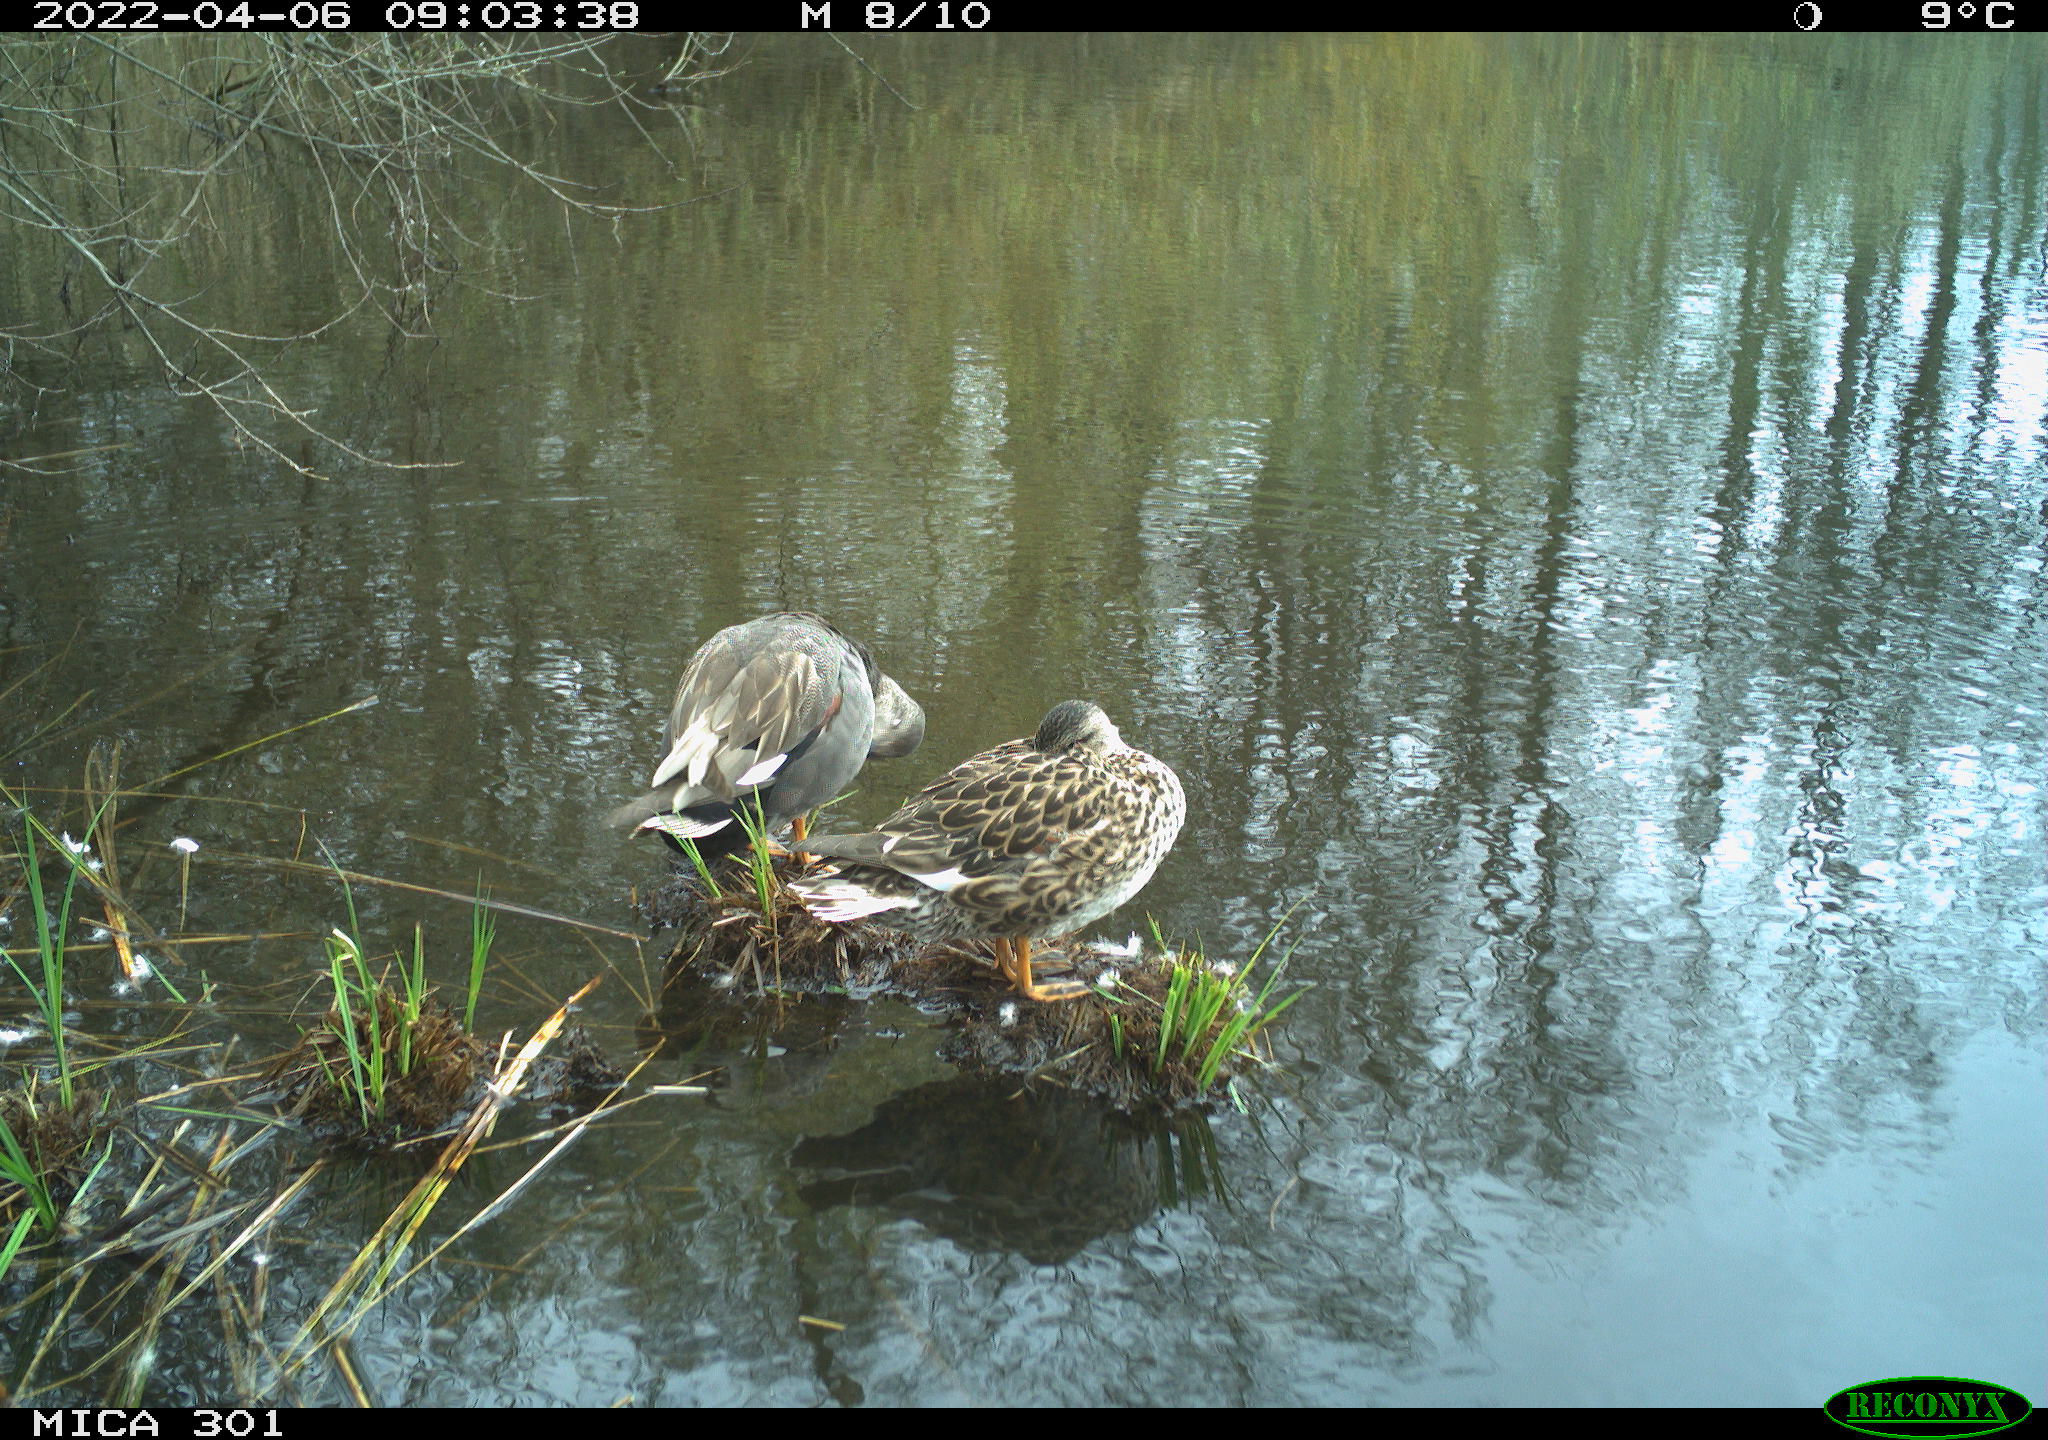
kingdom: Animalia
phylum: Chordata
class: Aves
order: Anseriformes
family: Anatidae
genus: Mareca
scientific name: Mareca strepera
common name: Gadwall
